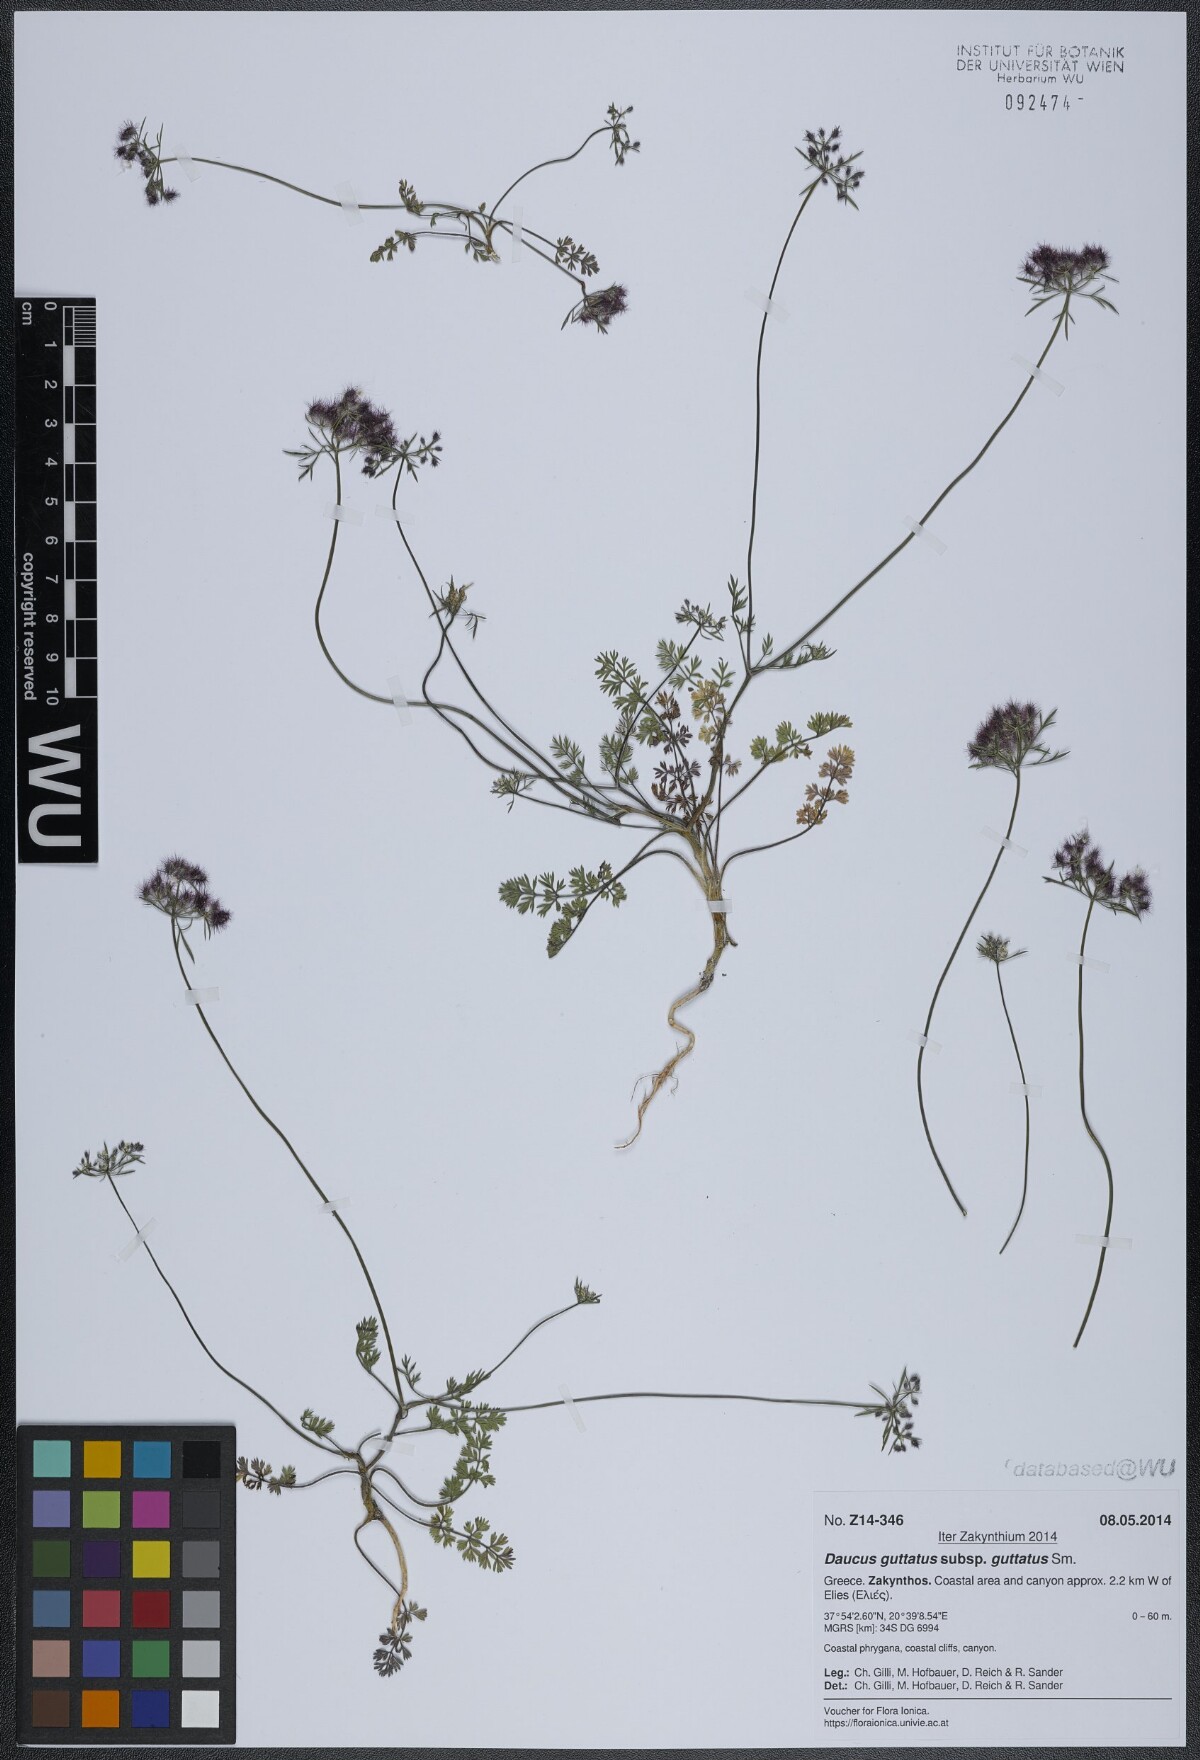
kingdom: Plantae
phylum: Tracheophyta
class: Magnoliopsida
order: Apiales
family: Apiaceae
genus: Daucus
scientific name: Daucus guttatus
